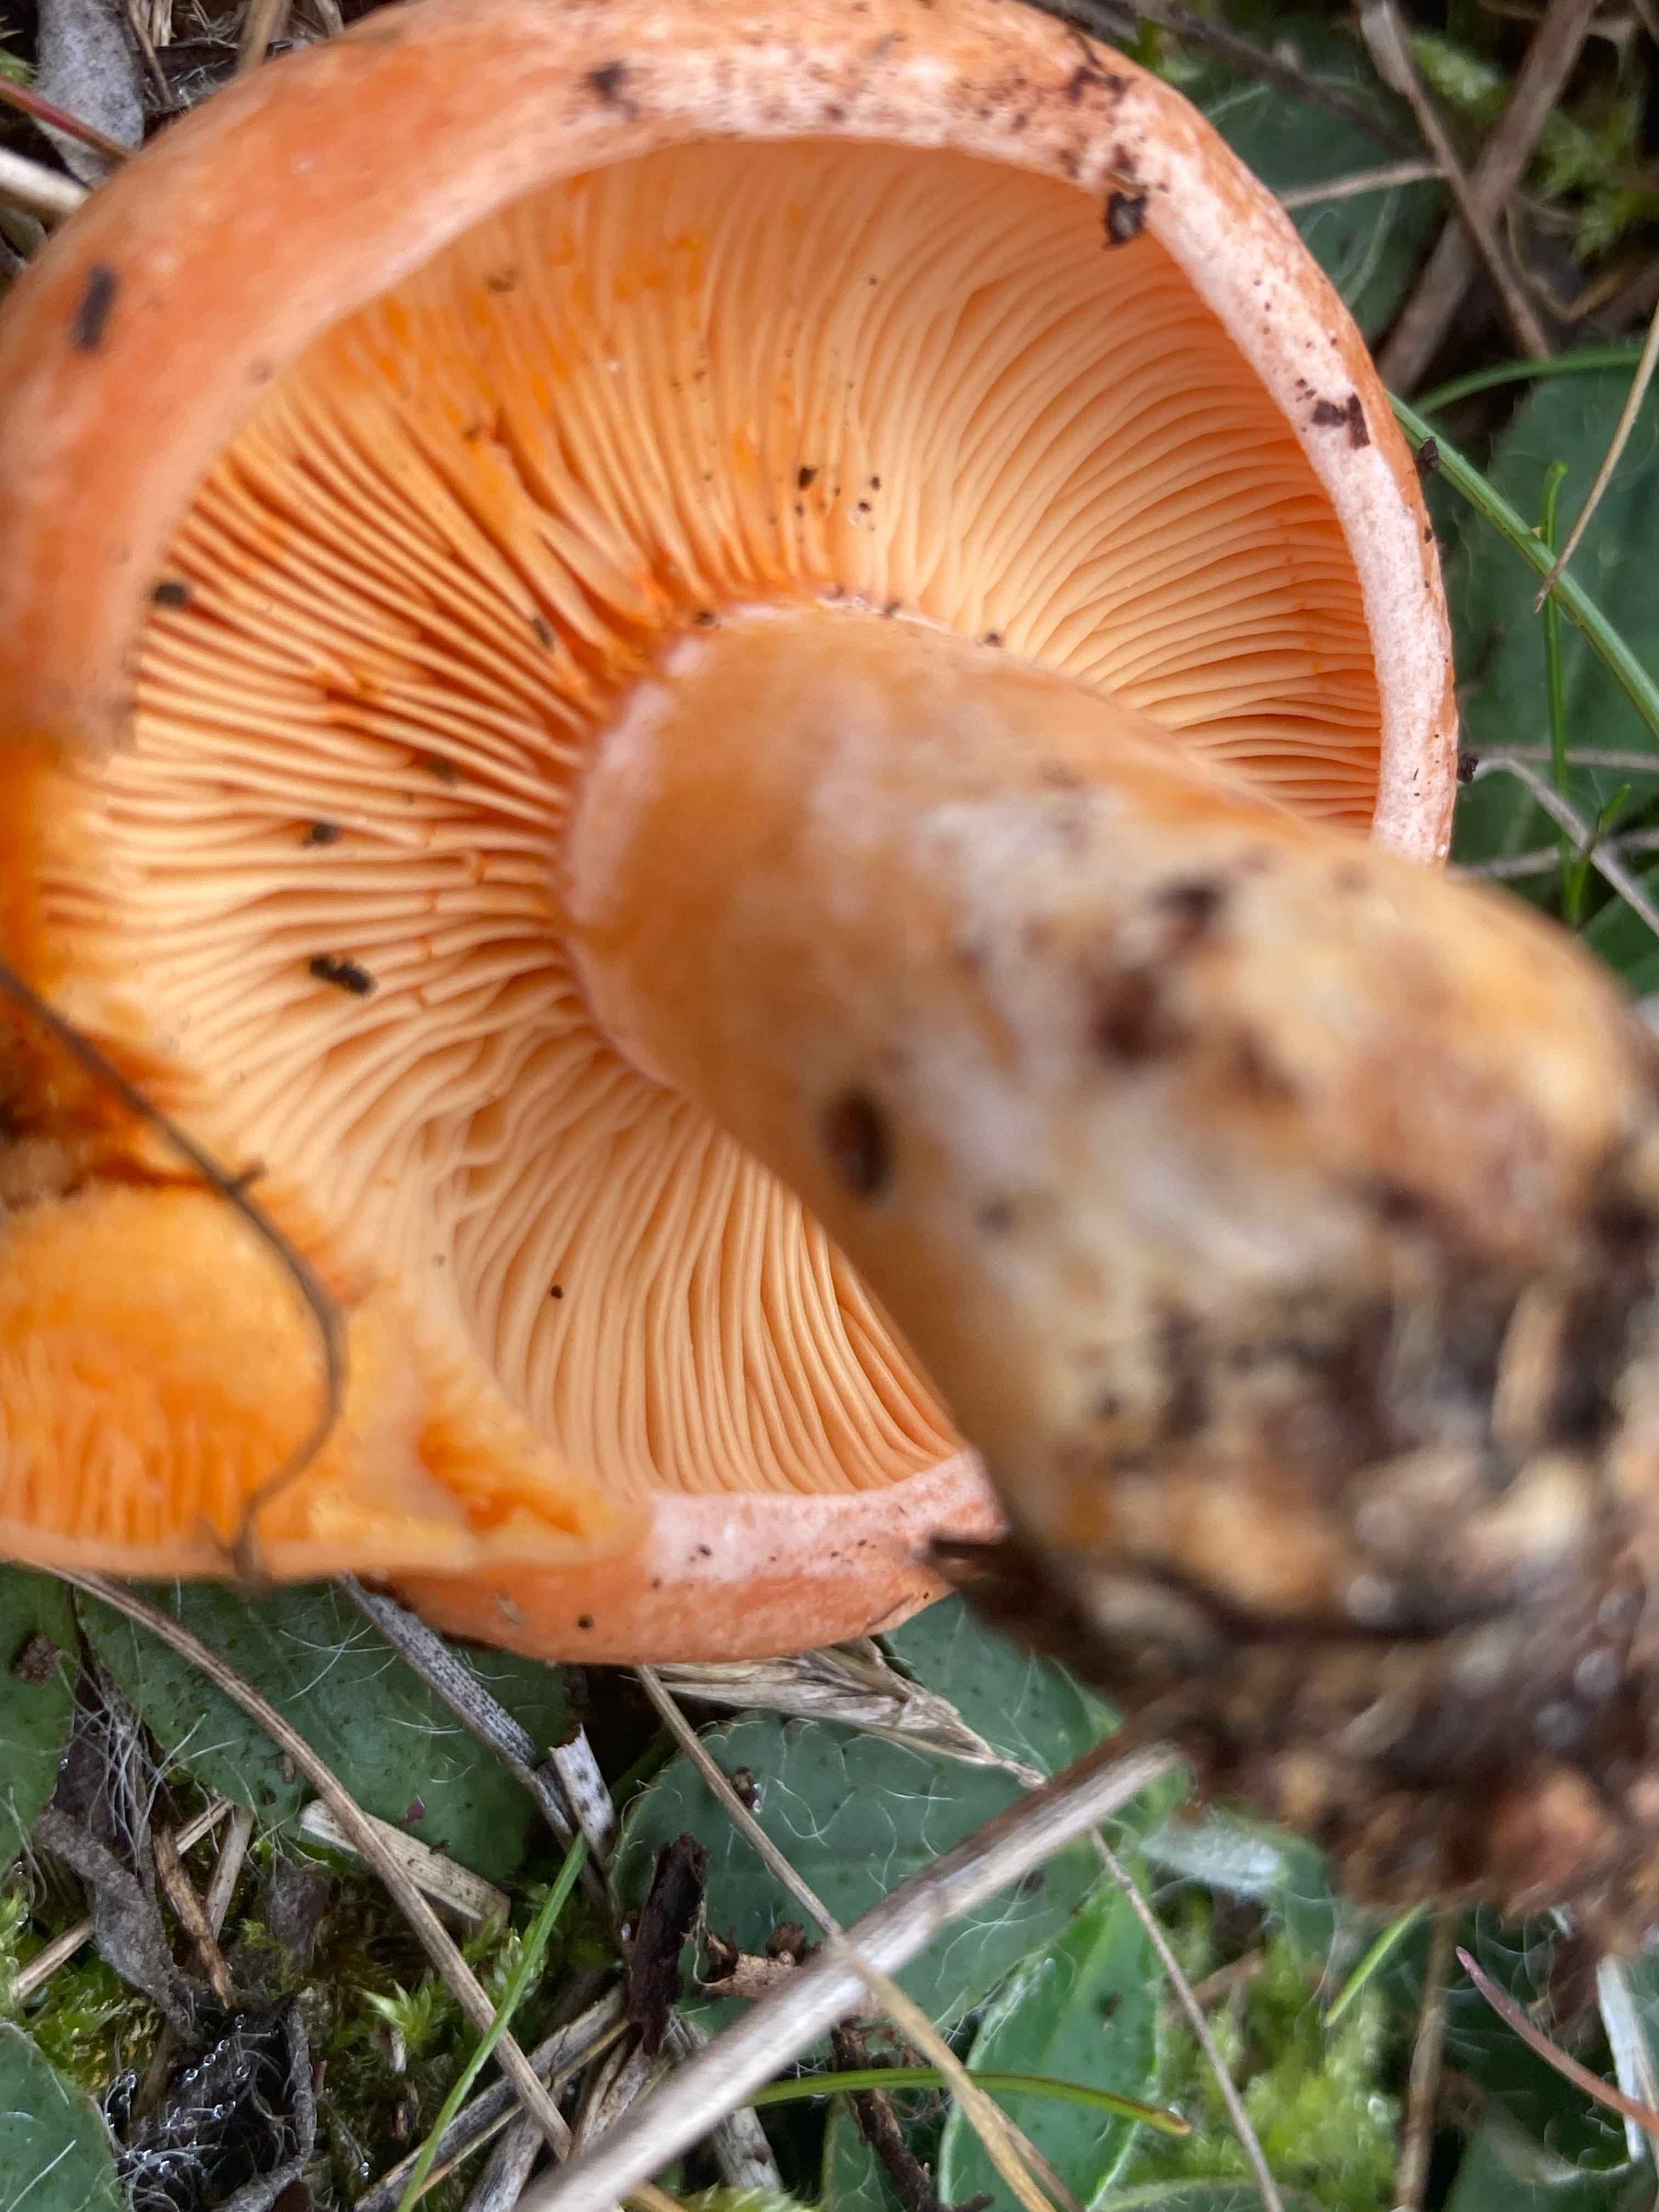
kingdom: Fungi
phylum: Basidiomycota
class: Agaricomycetes
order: Russulales
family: Russulaceae
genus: Lactarius
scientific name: Lactarius deliciosus
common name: velsmagende mælkehat
